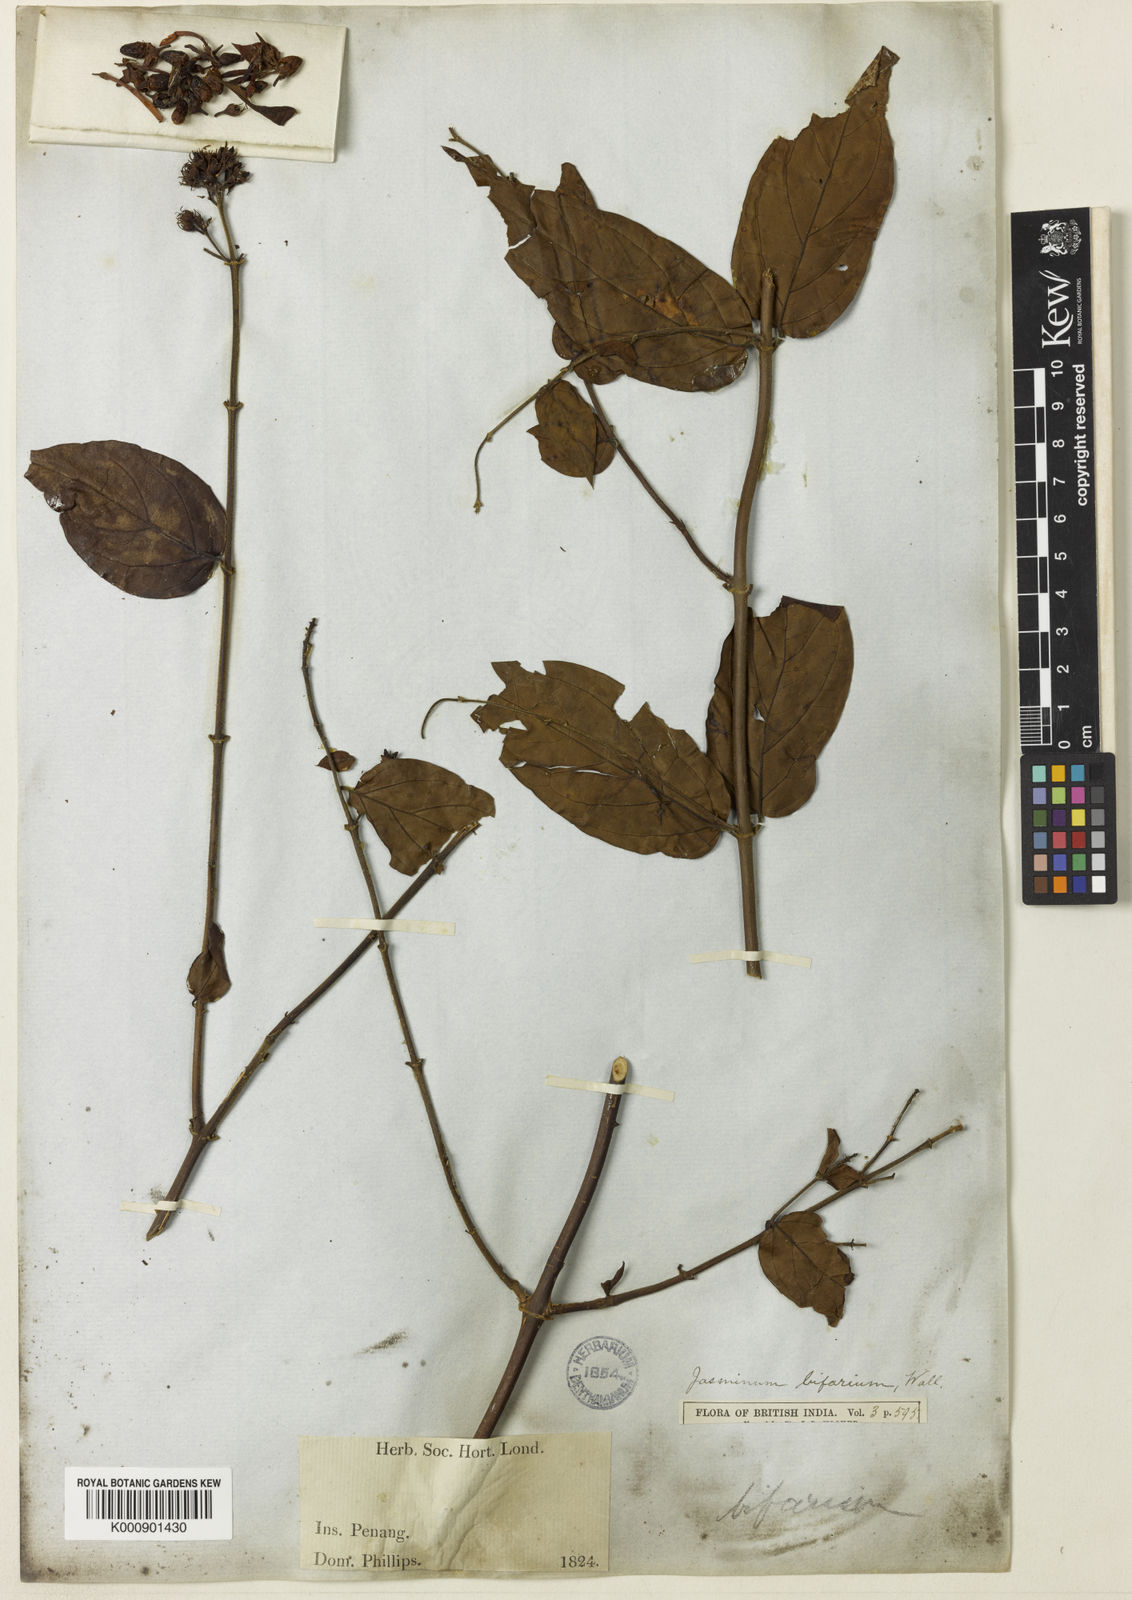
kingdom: Plantae
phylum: Tracheophyta
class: Magnoliopsida
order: Lamiales
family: Oleaceae
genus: Jasminum
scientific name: Jasminum elongatum
